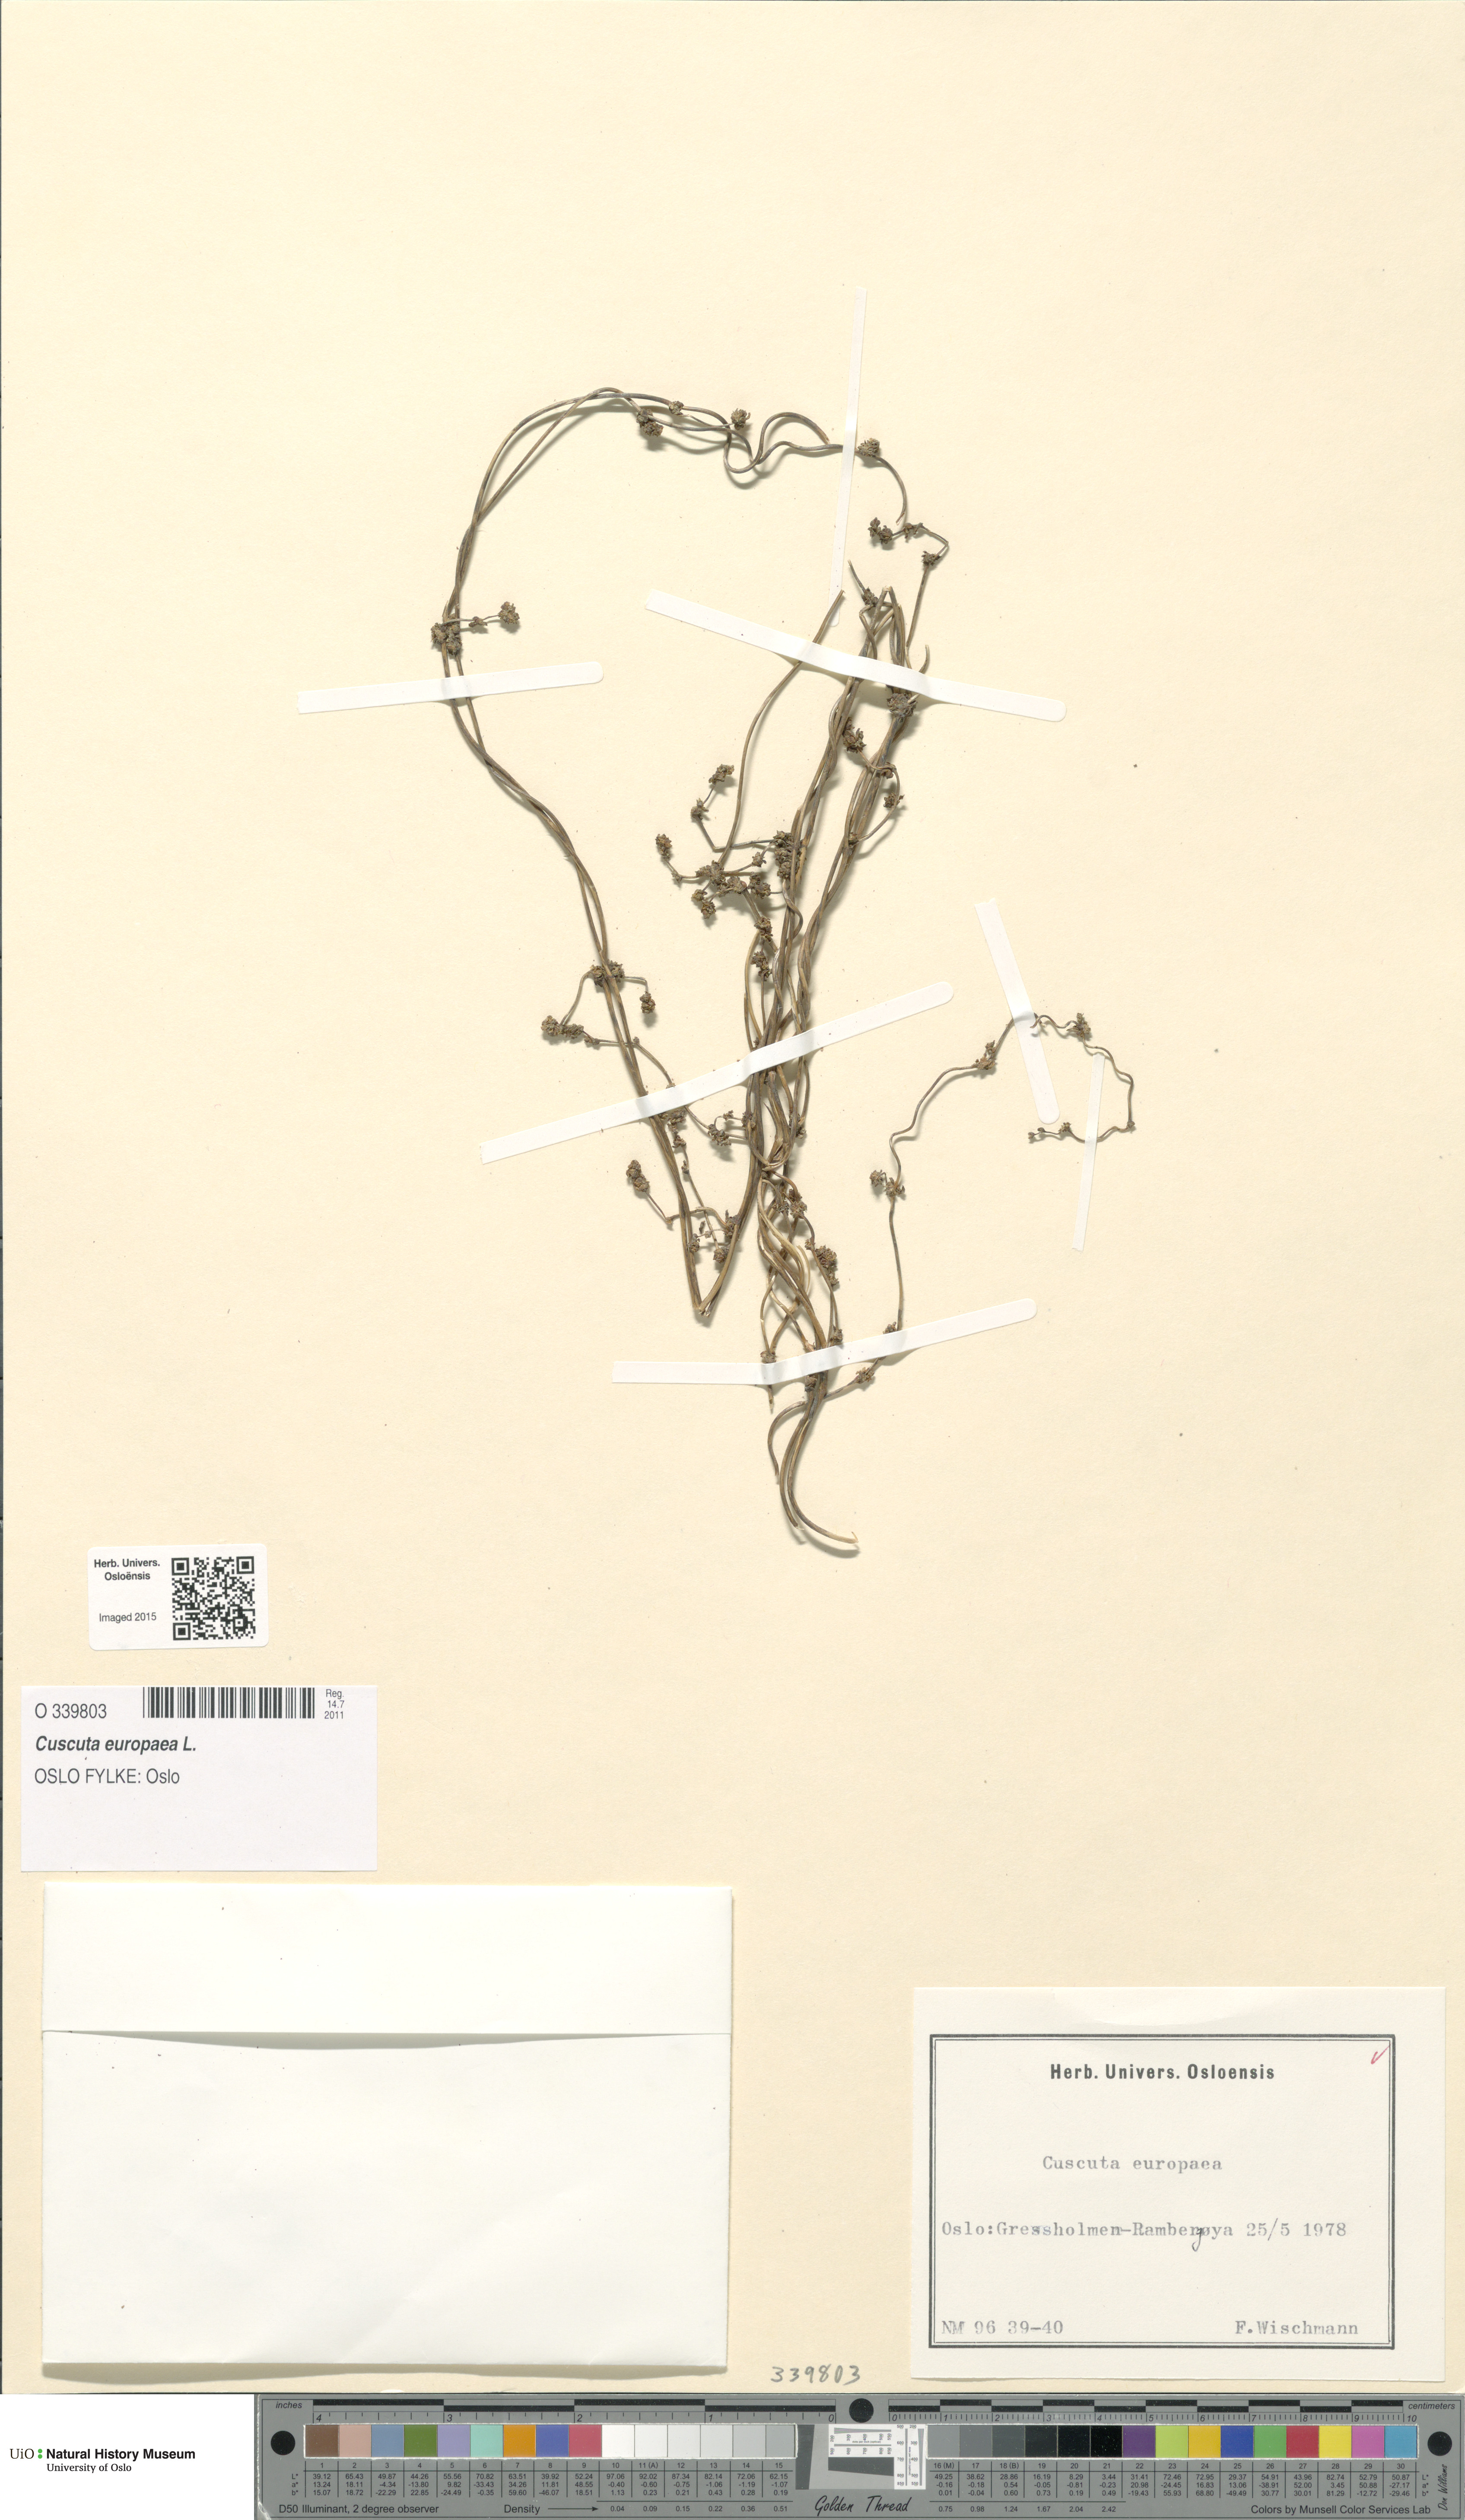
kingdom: Plantae
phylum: Tracheophyta
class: Magnoliopsida
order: Solanales
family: Convolvulaceae
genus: Cuscuta
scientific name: Cuscuta europaea
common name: Greater dodder
